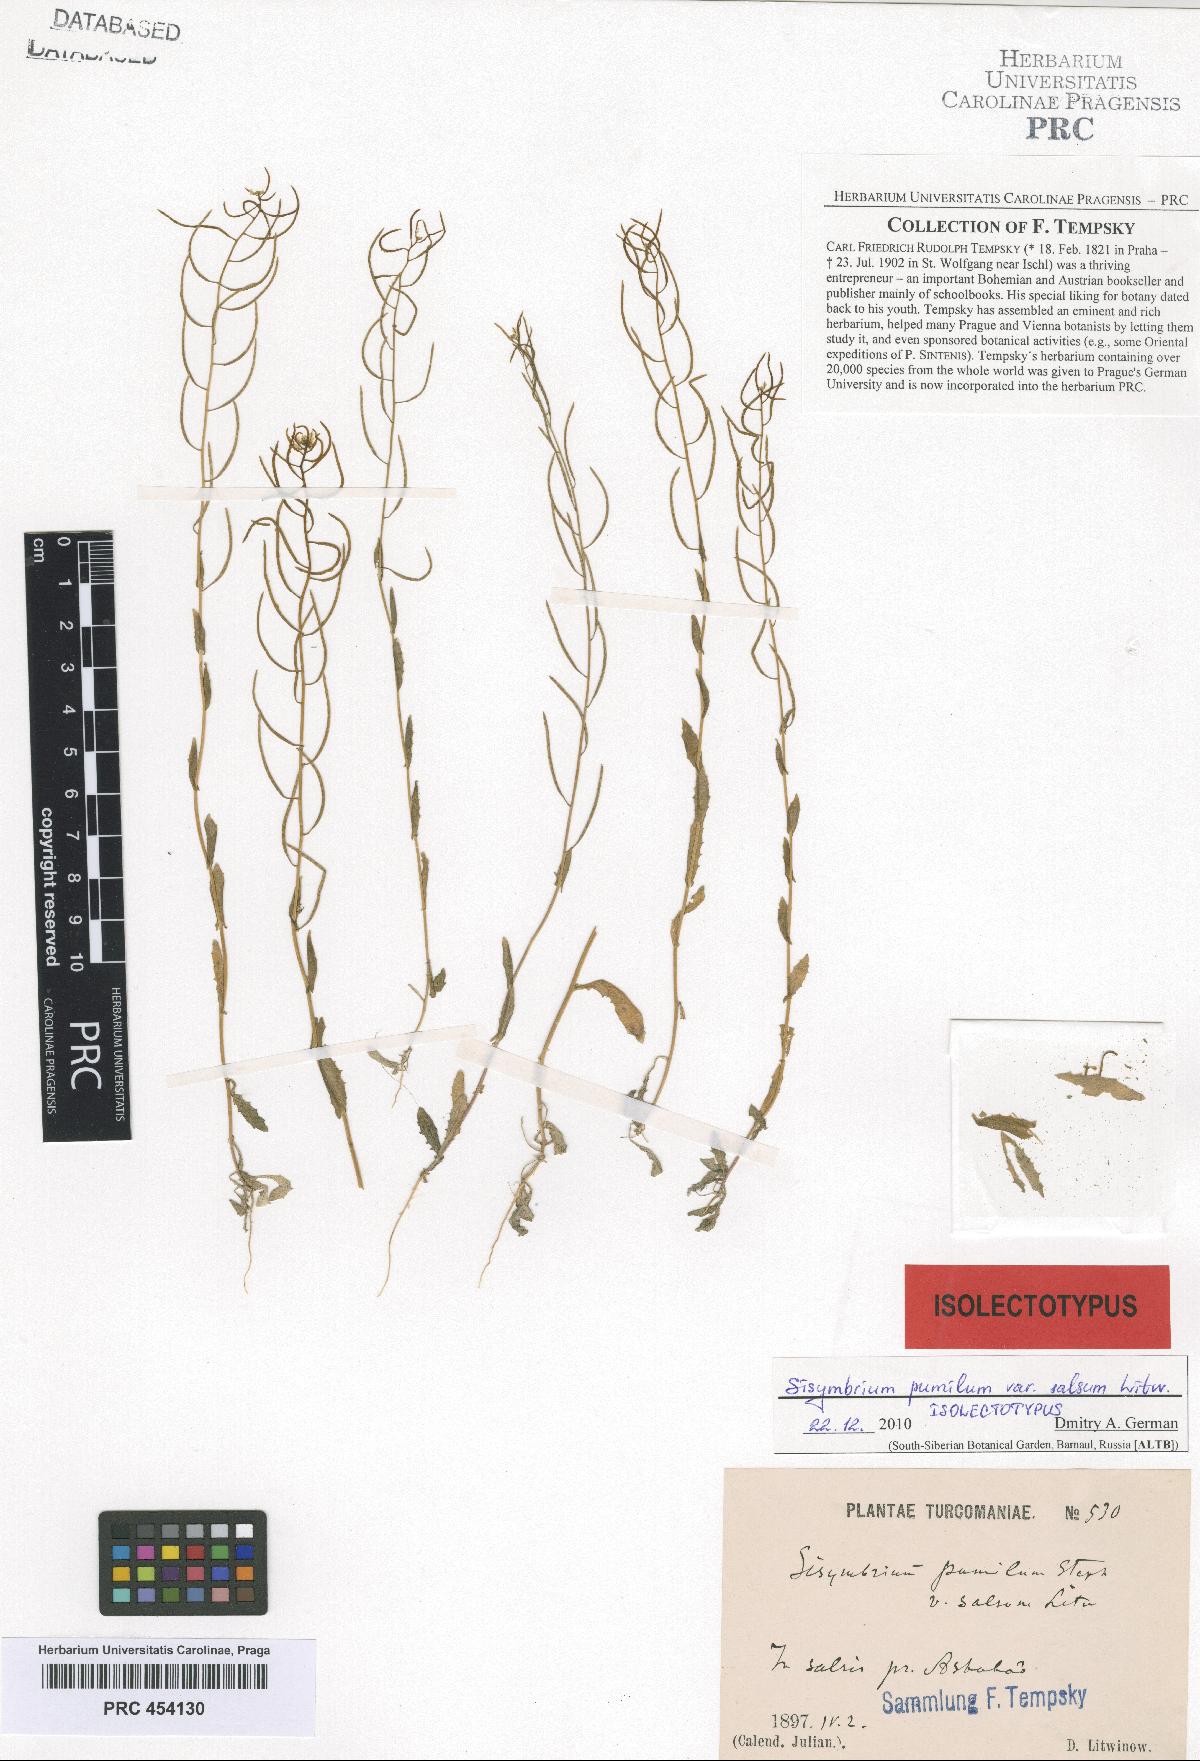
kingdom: Plantae
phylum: Tracheophyta
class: Magnoliopsida
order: Brassicales
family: Brassicaceae
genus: Sisymbrium
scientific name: Sisymbrium pumilum
